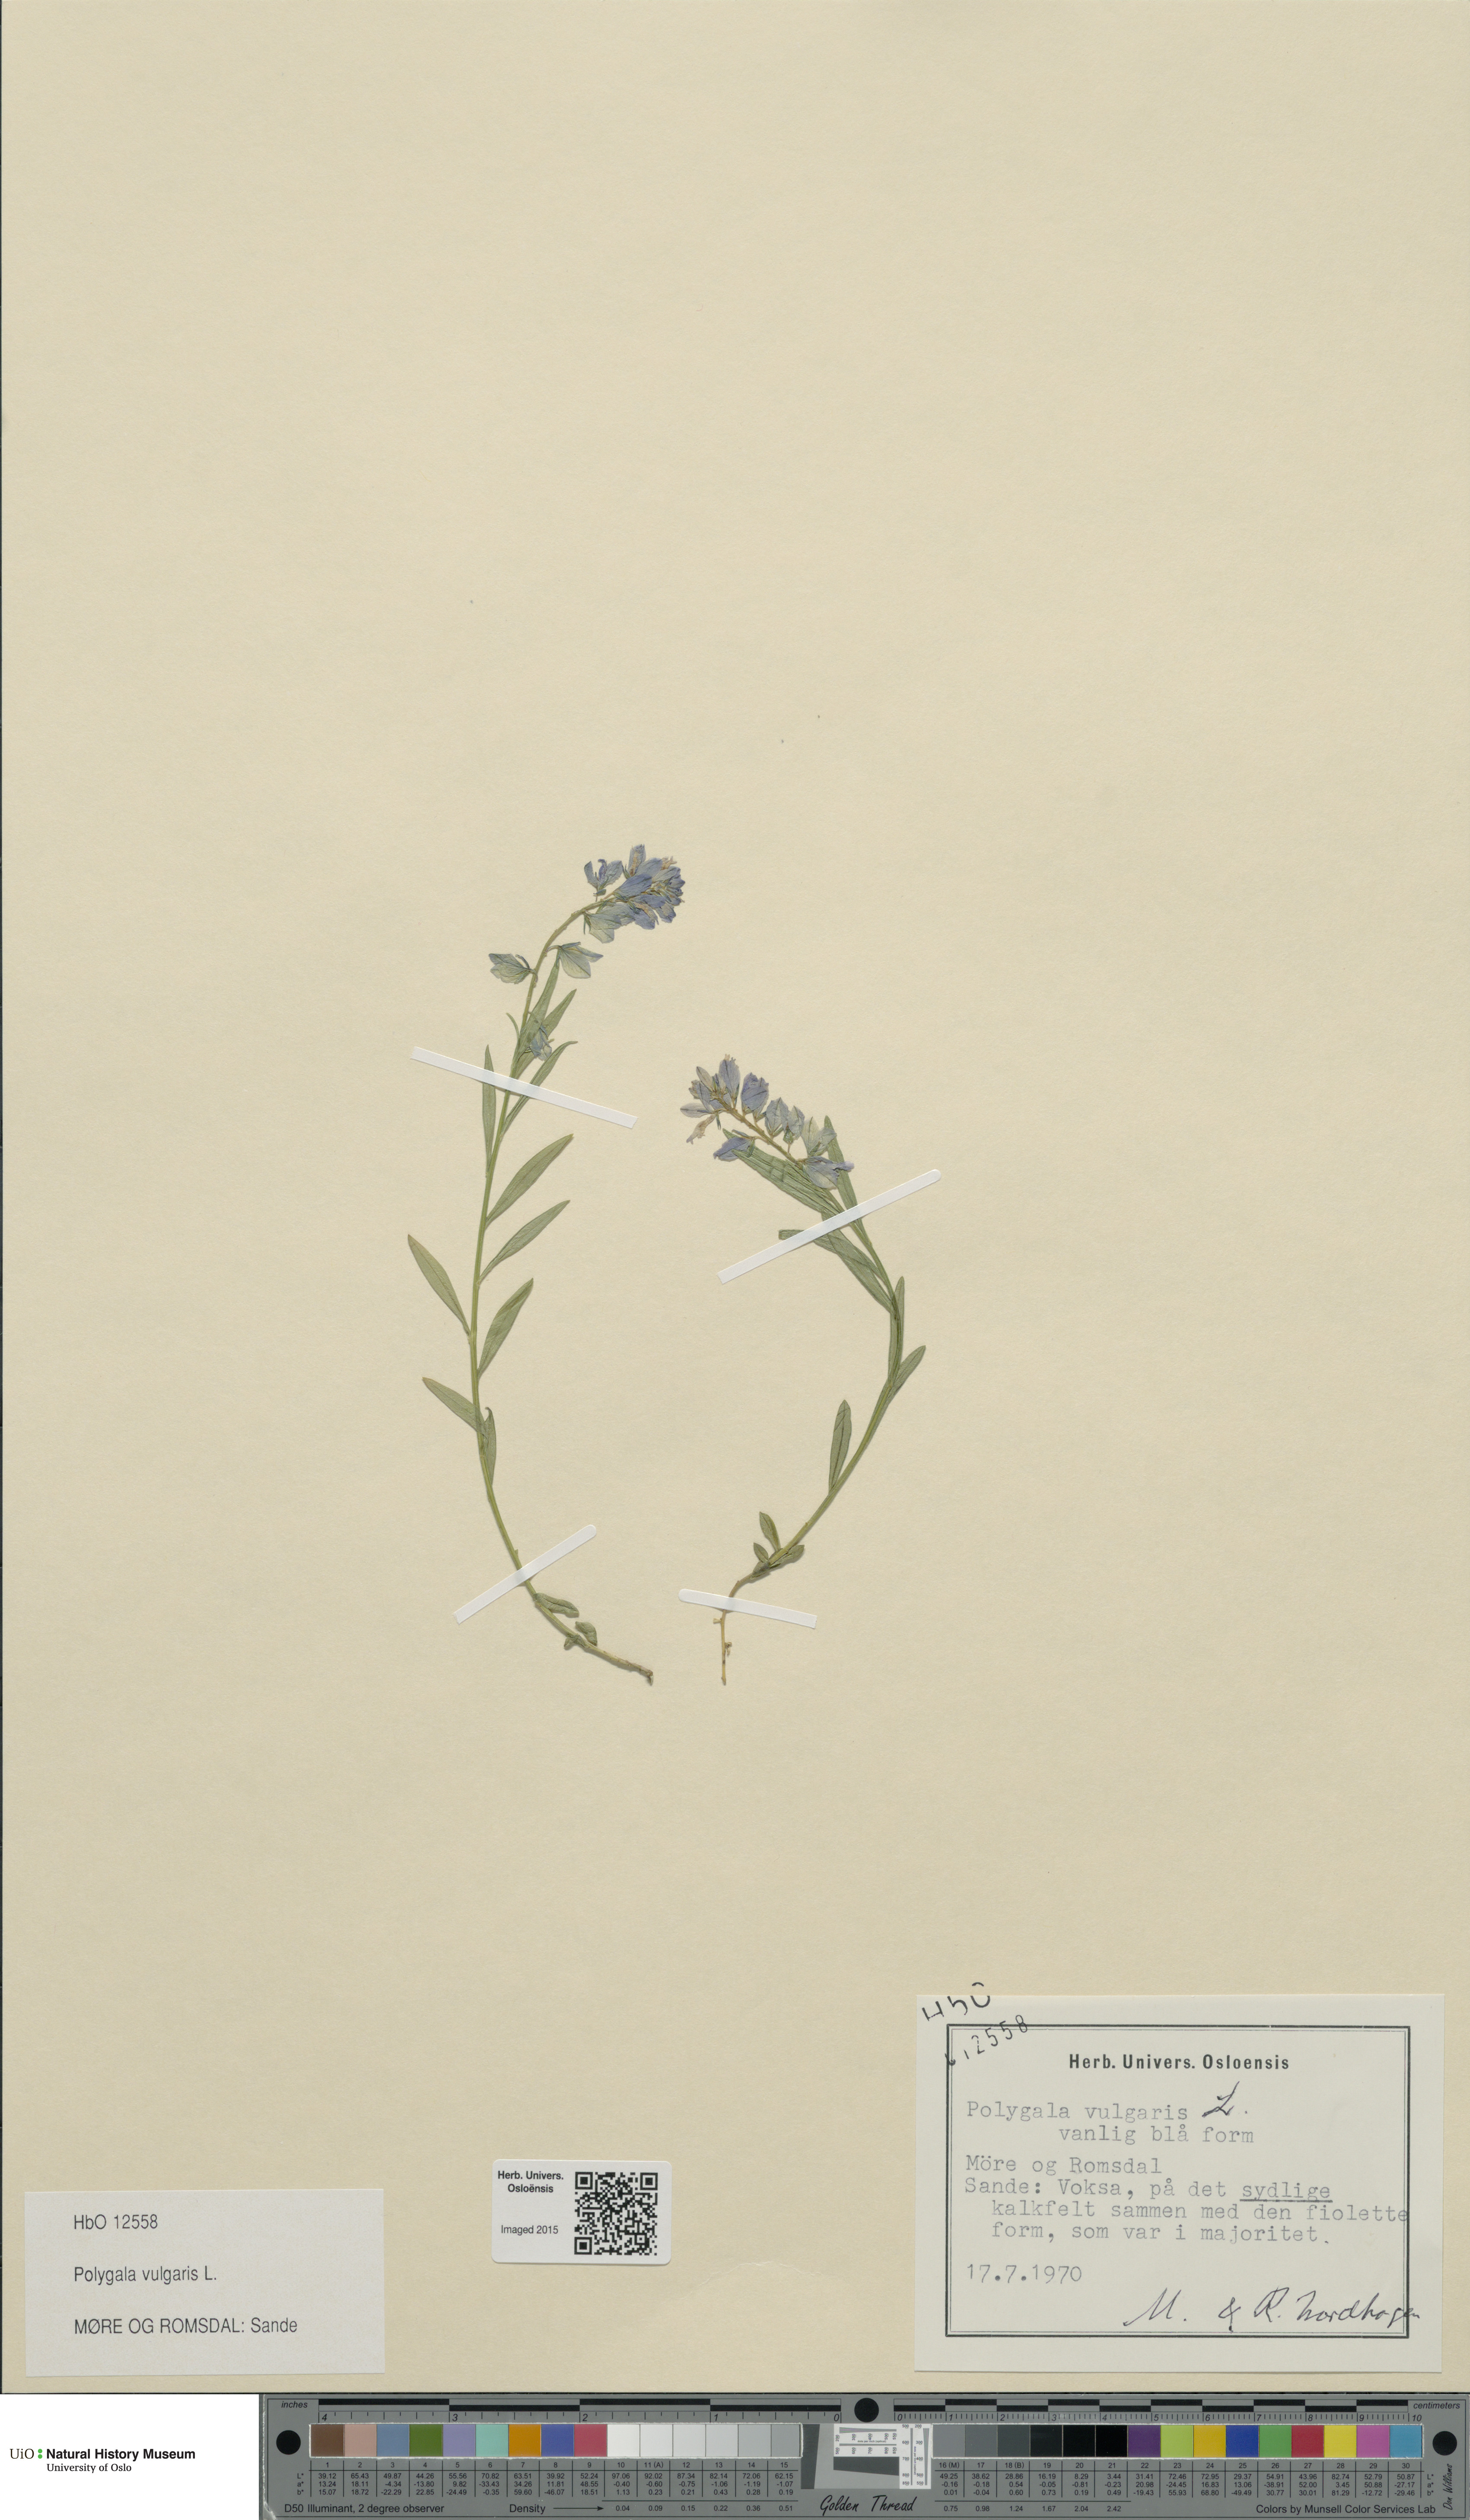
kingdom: Plantae
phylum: Tracheophyta
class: Magnoliopsida
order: Fabales
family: Polygalaceae
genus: Polygala
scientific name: Polygala vulgaris
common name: Common milkwort
